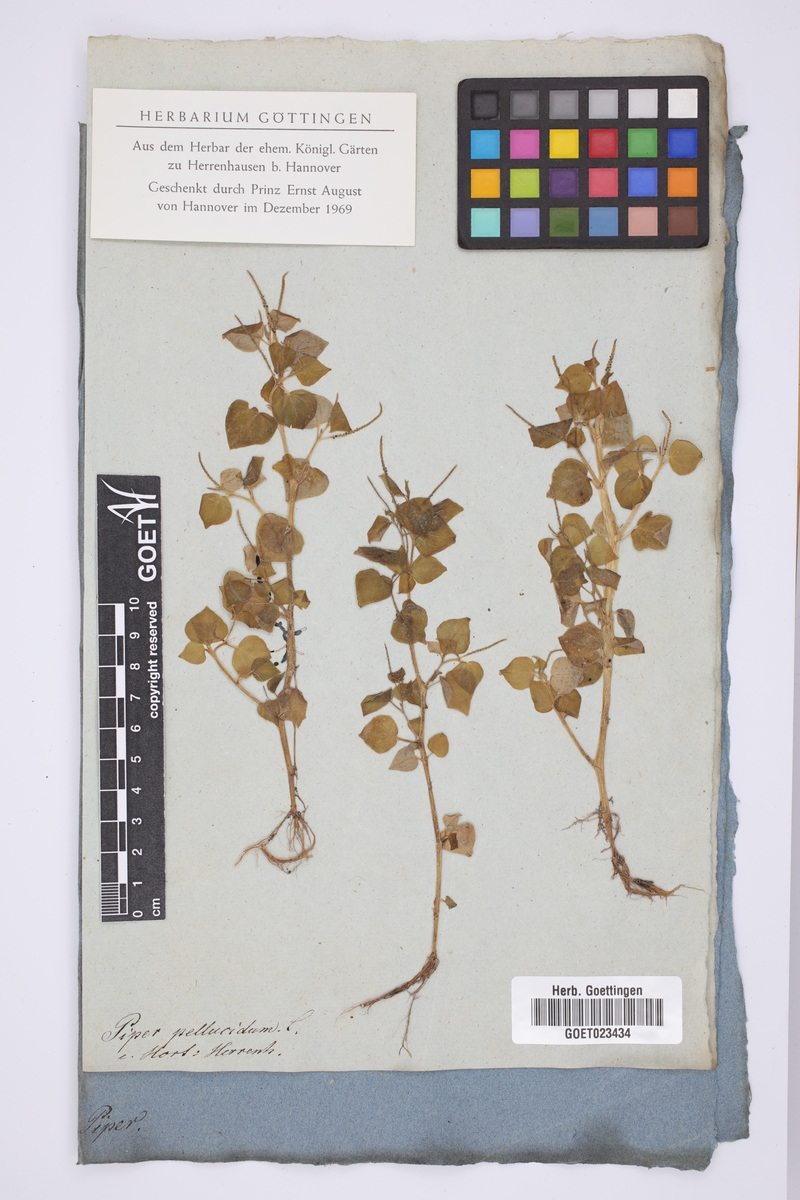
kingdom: Plantae
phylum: Tracheophyta
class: Magnoliopsida
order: Piperales
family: Piperaceae
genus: Peperomia
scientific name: Peperomia pellucida
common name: Man to man
